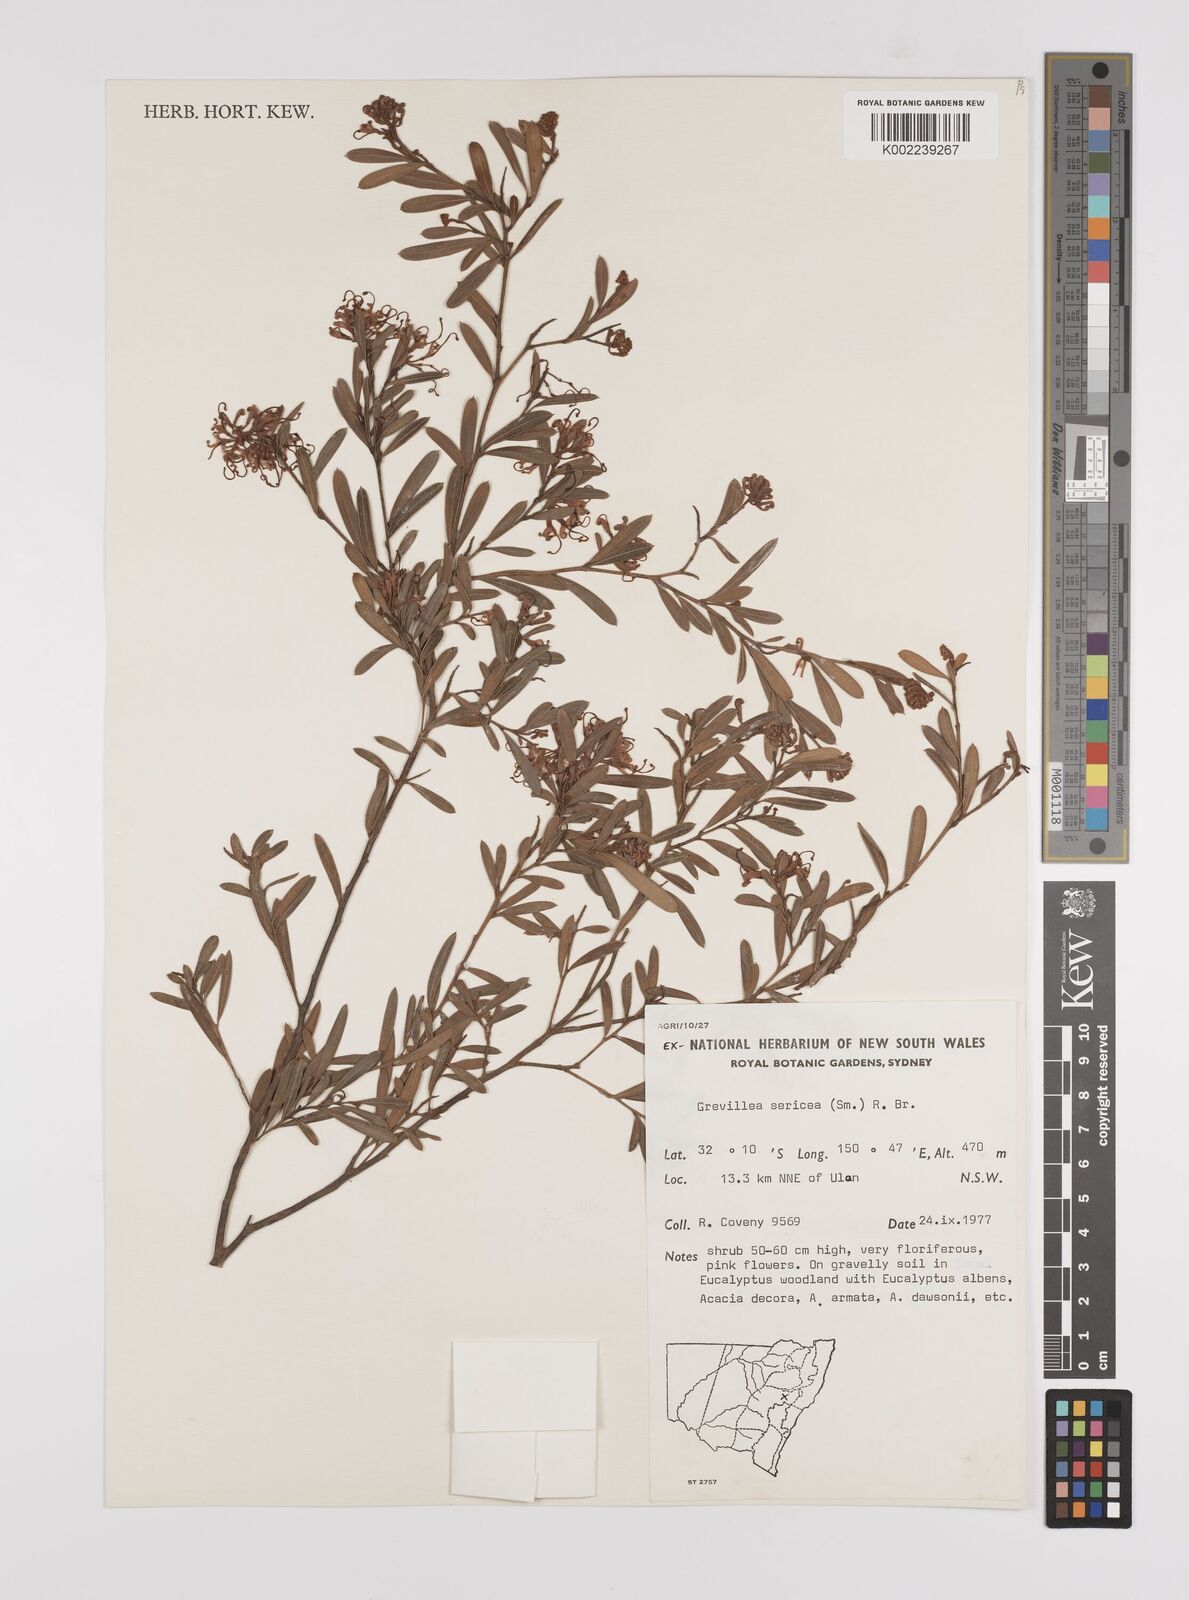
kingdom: Plantae
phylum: Tracheophyta
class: Magnoliopsida
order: Proteales
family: Proteaceae
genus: Grevillea
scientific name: Grevillea sericea
